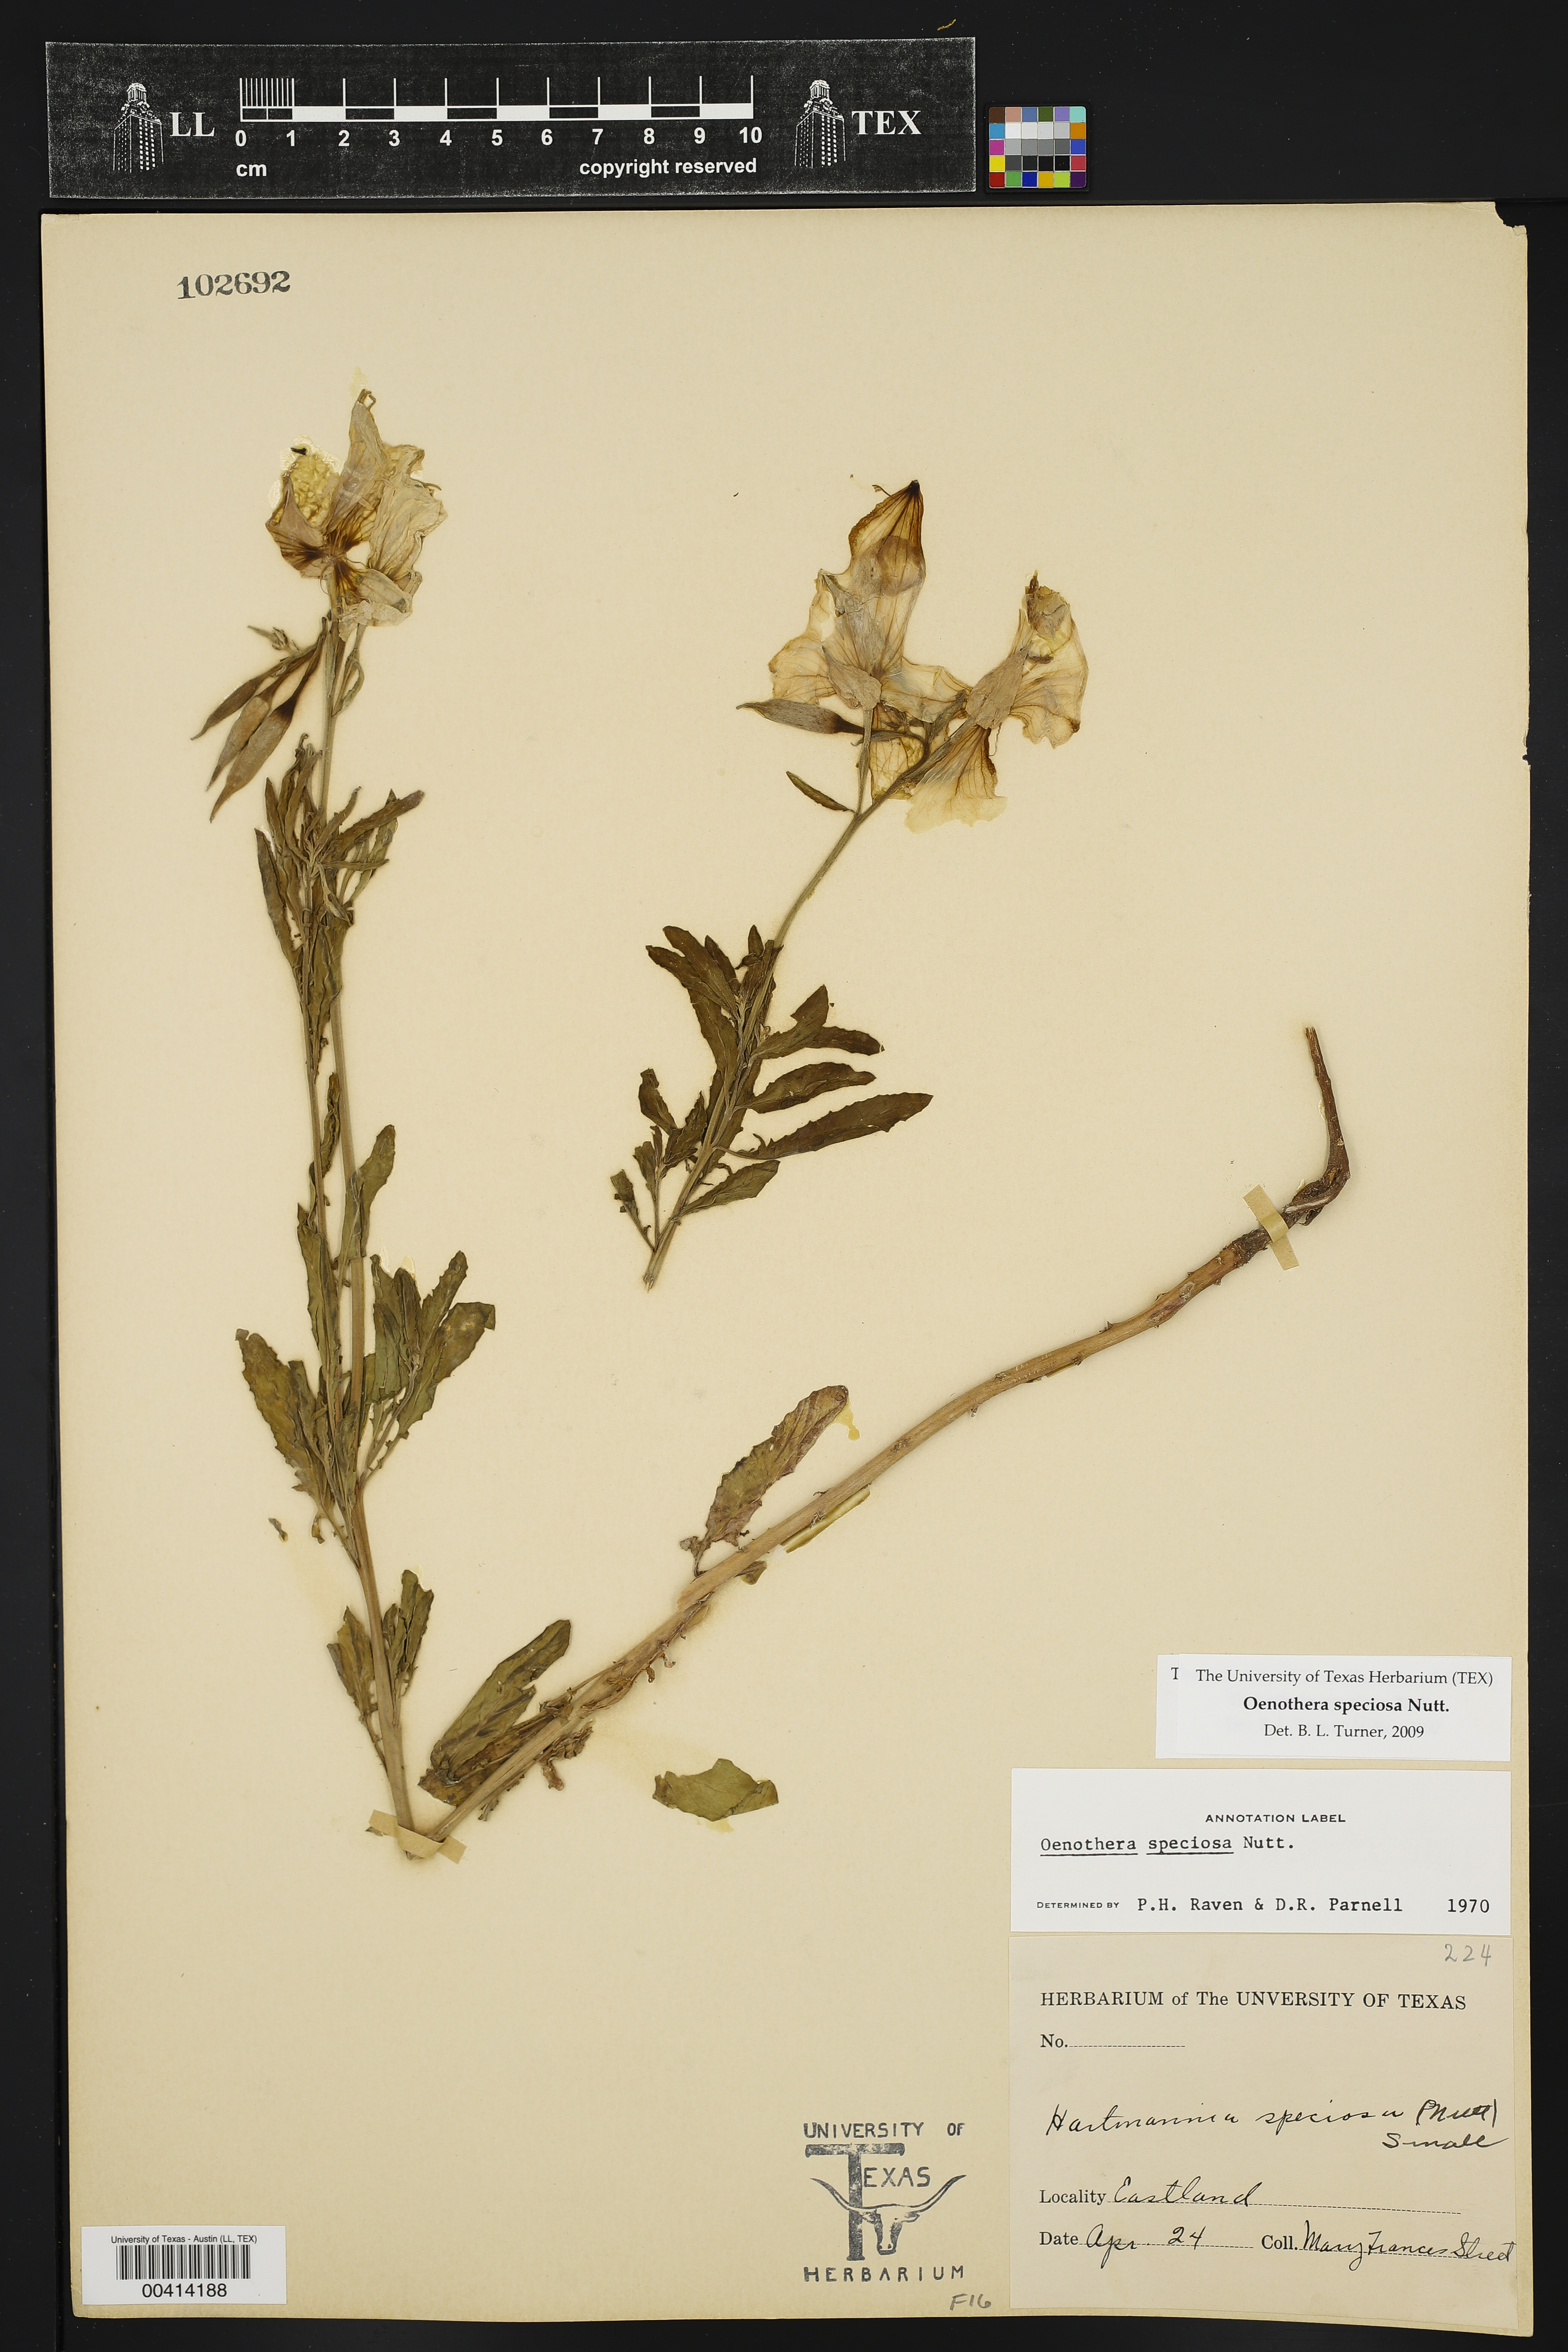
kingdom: Plantae
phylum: Tracheophyta
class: Magnoliopsida
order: Myrtales
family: Onagraceae
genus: Oenothera
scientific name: Oenothera speciosa
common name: White evening-primrose
